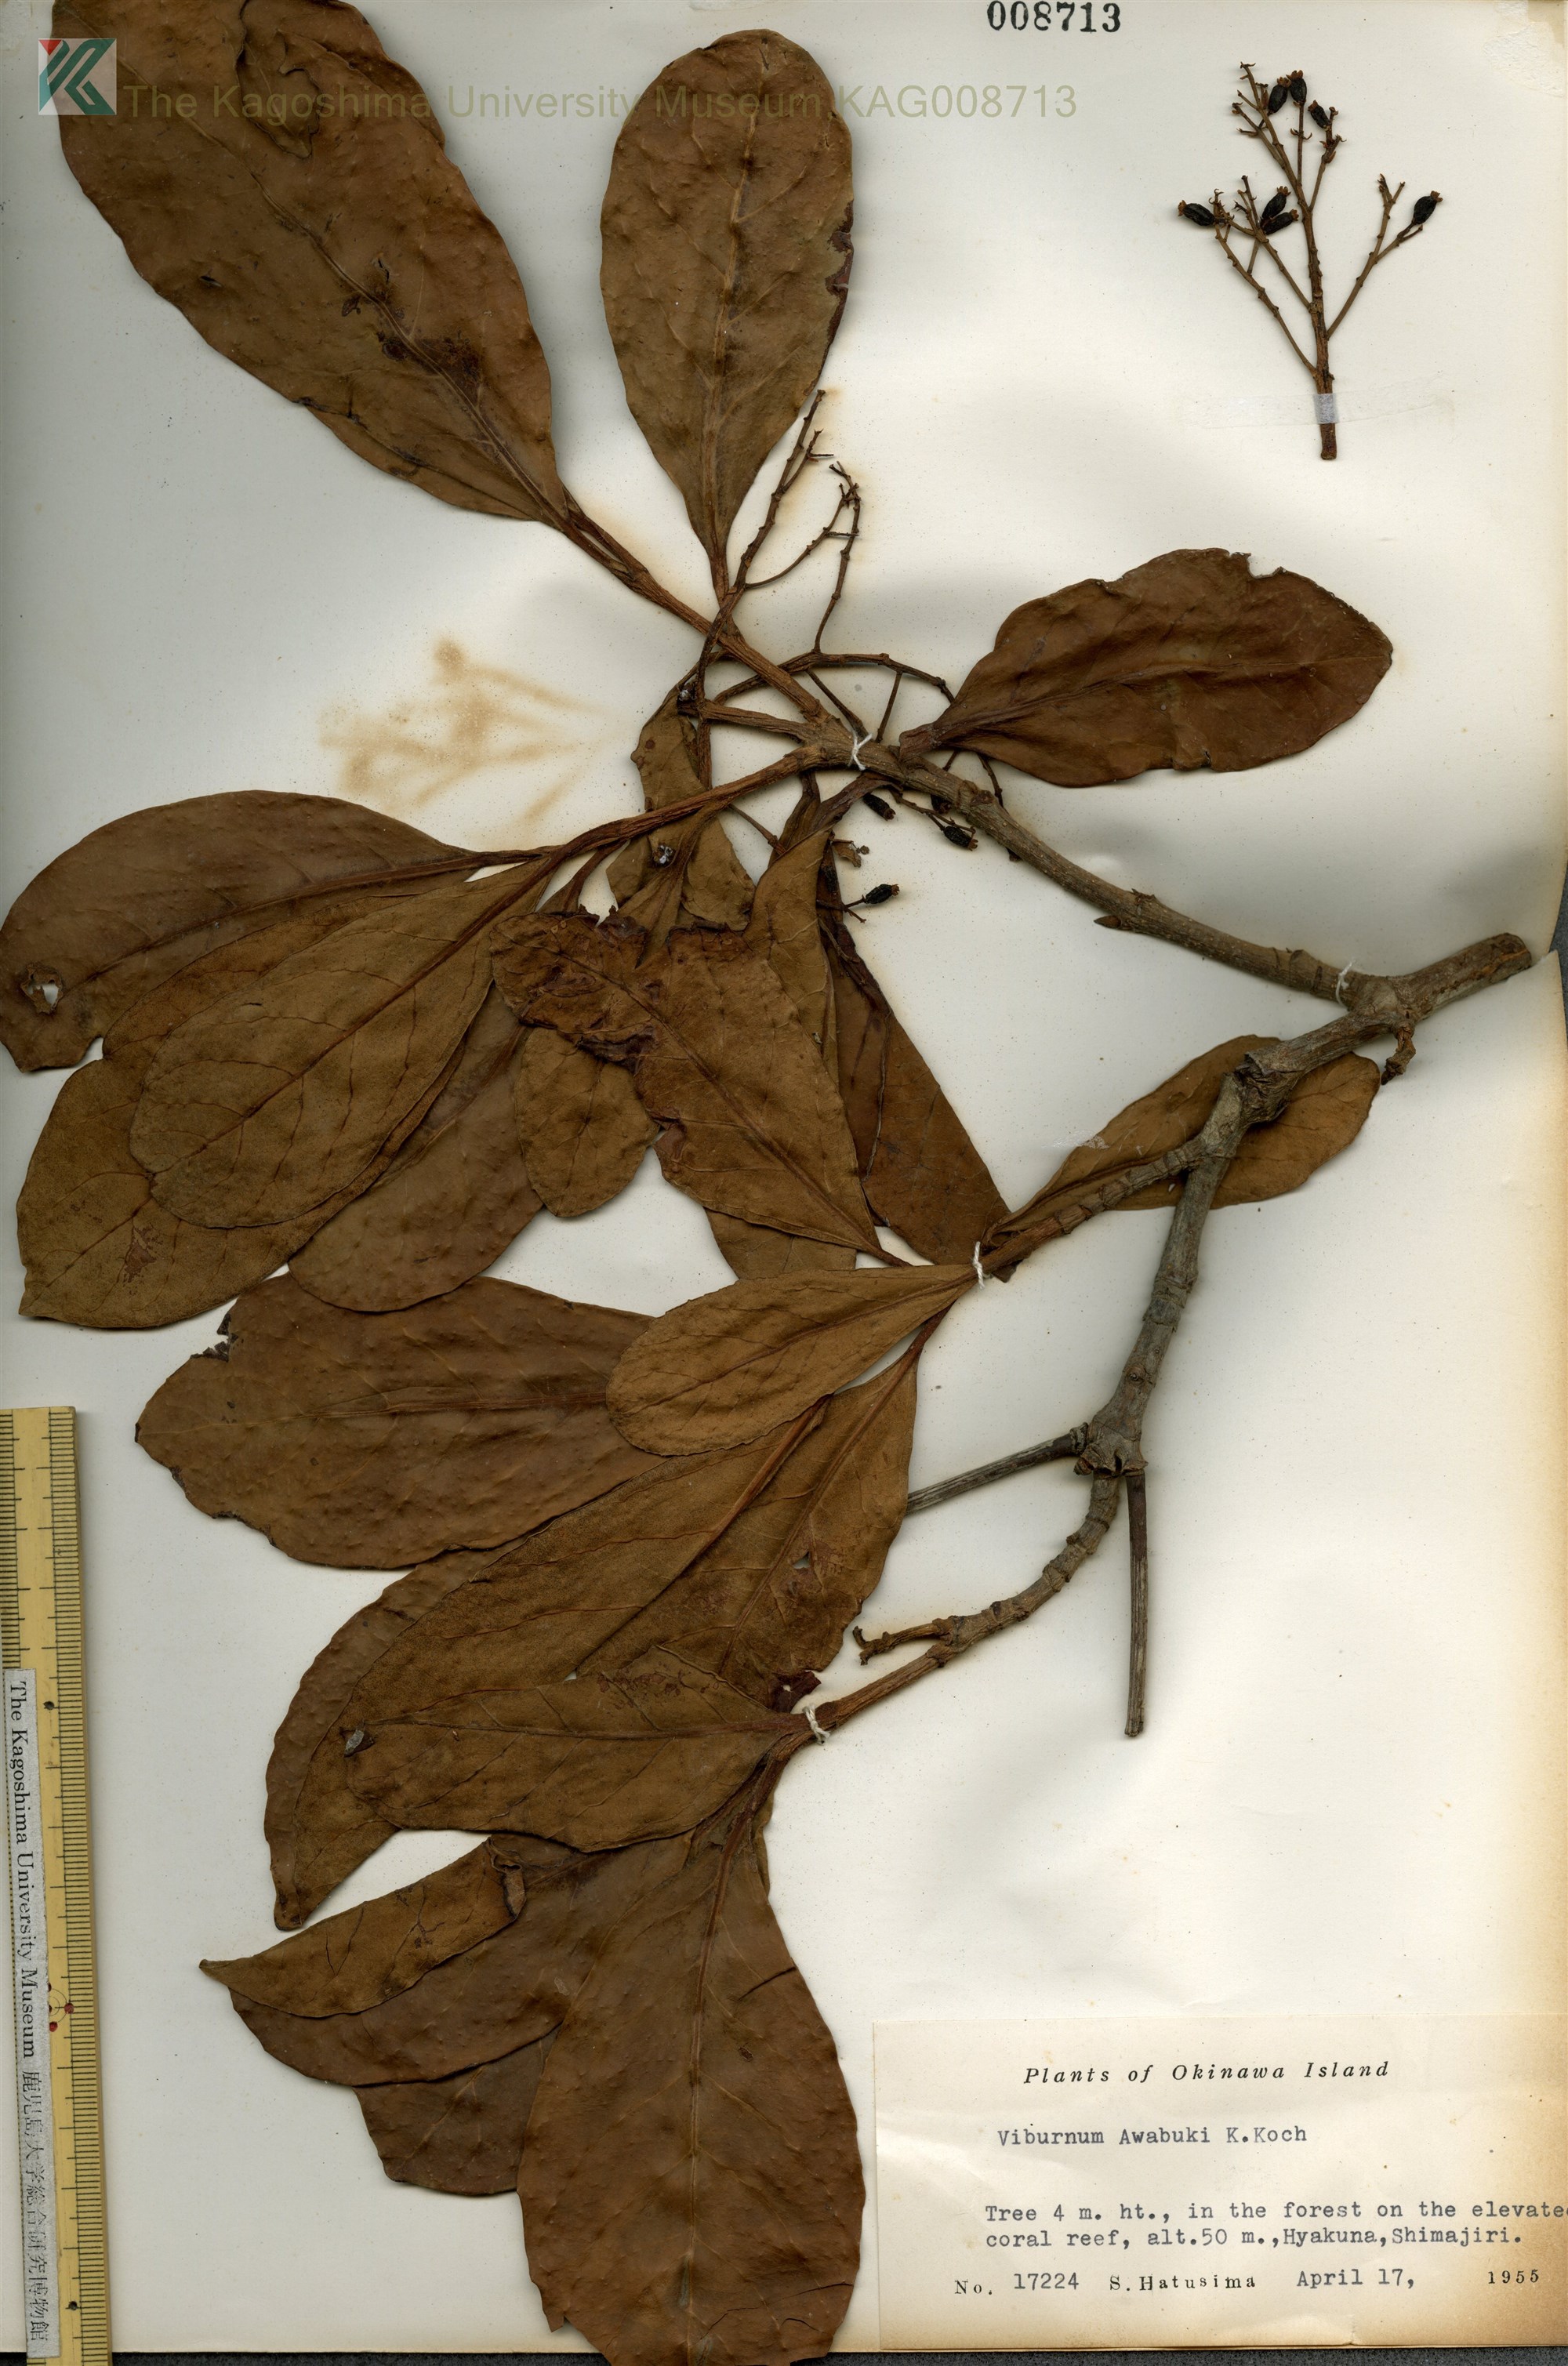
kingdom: Plantae
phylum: Tracheophyta
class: Magnoliopsida
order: Dipsacales
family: Viburnaceae
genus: Viburnum
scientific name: Viburnum odoratissimum
